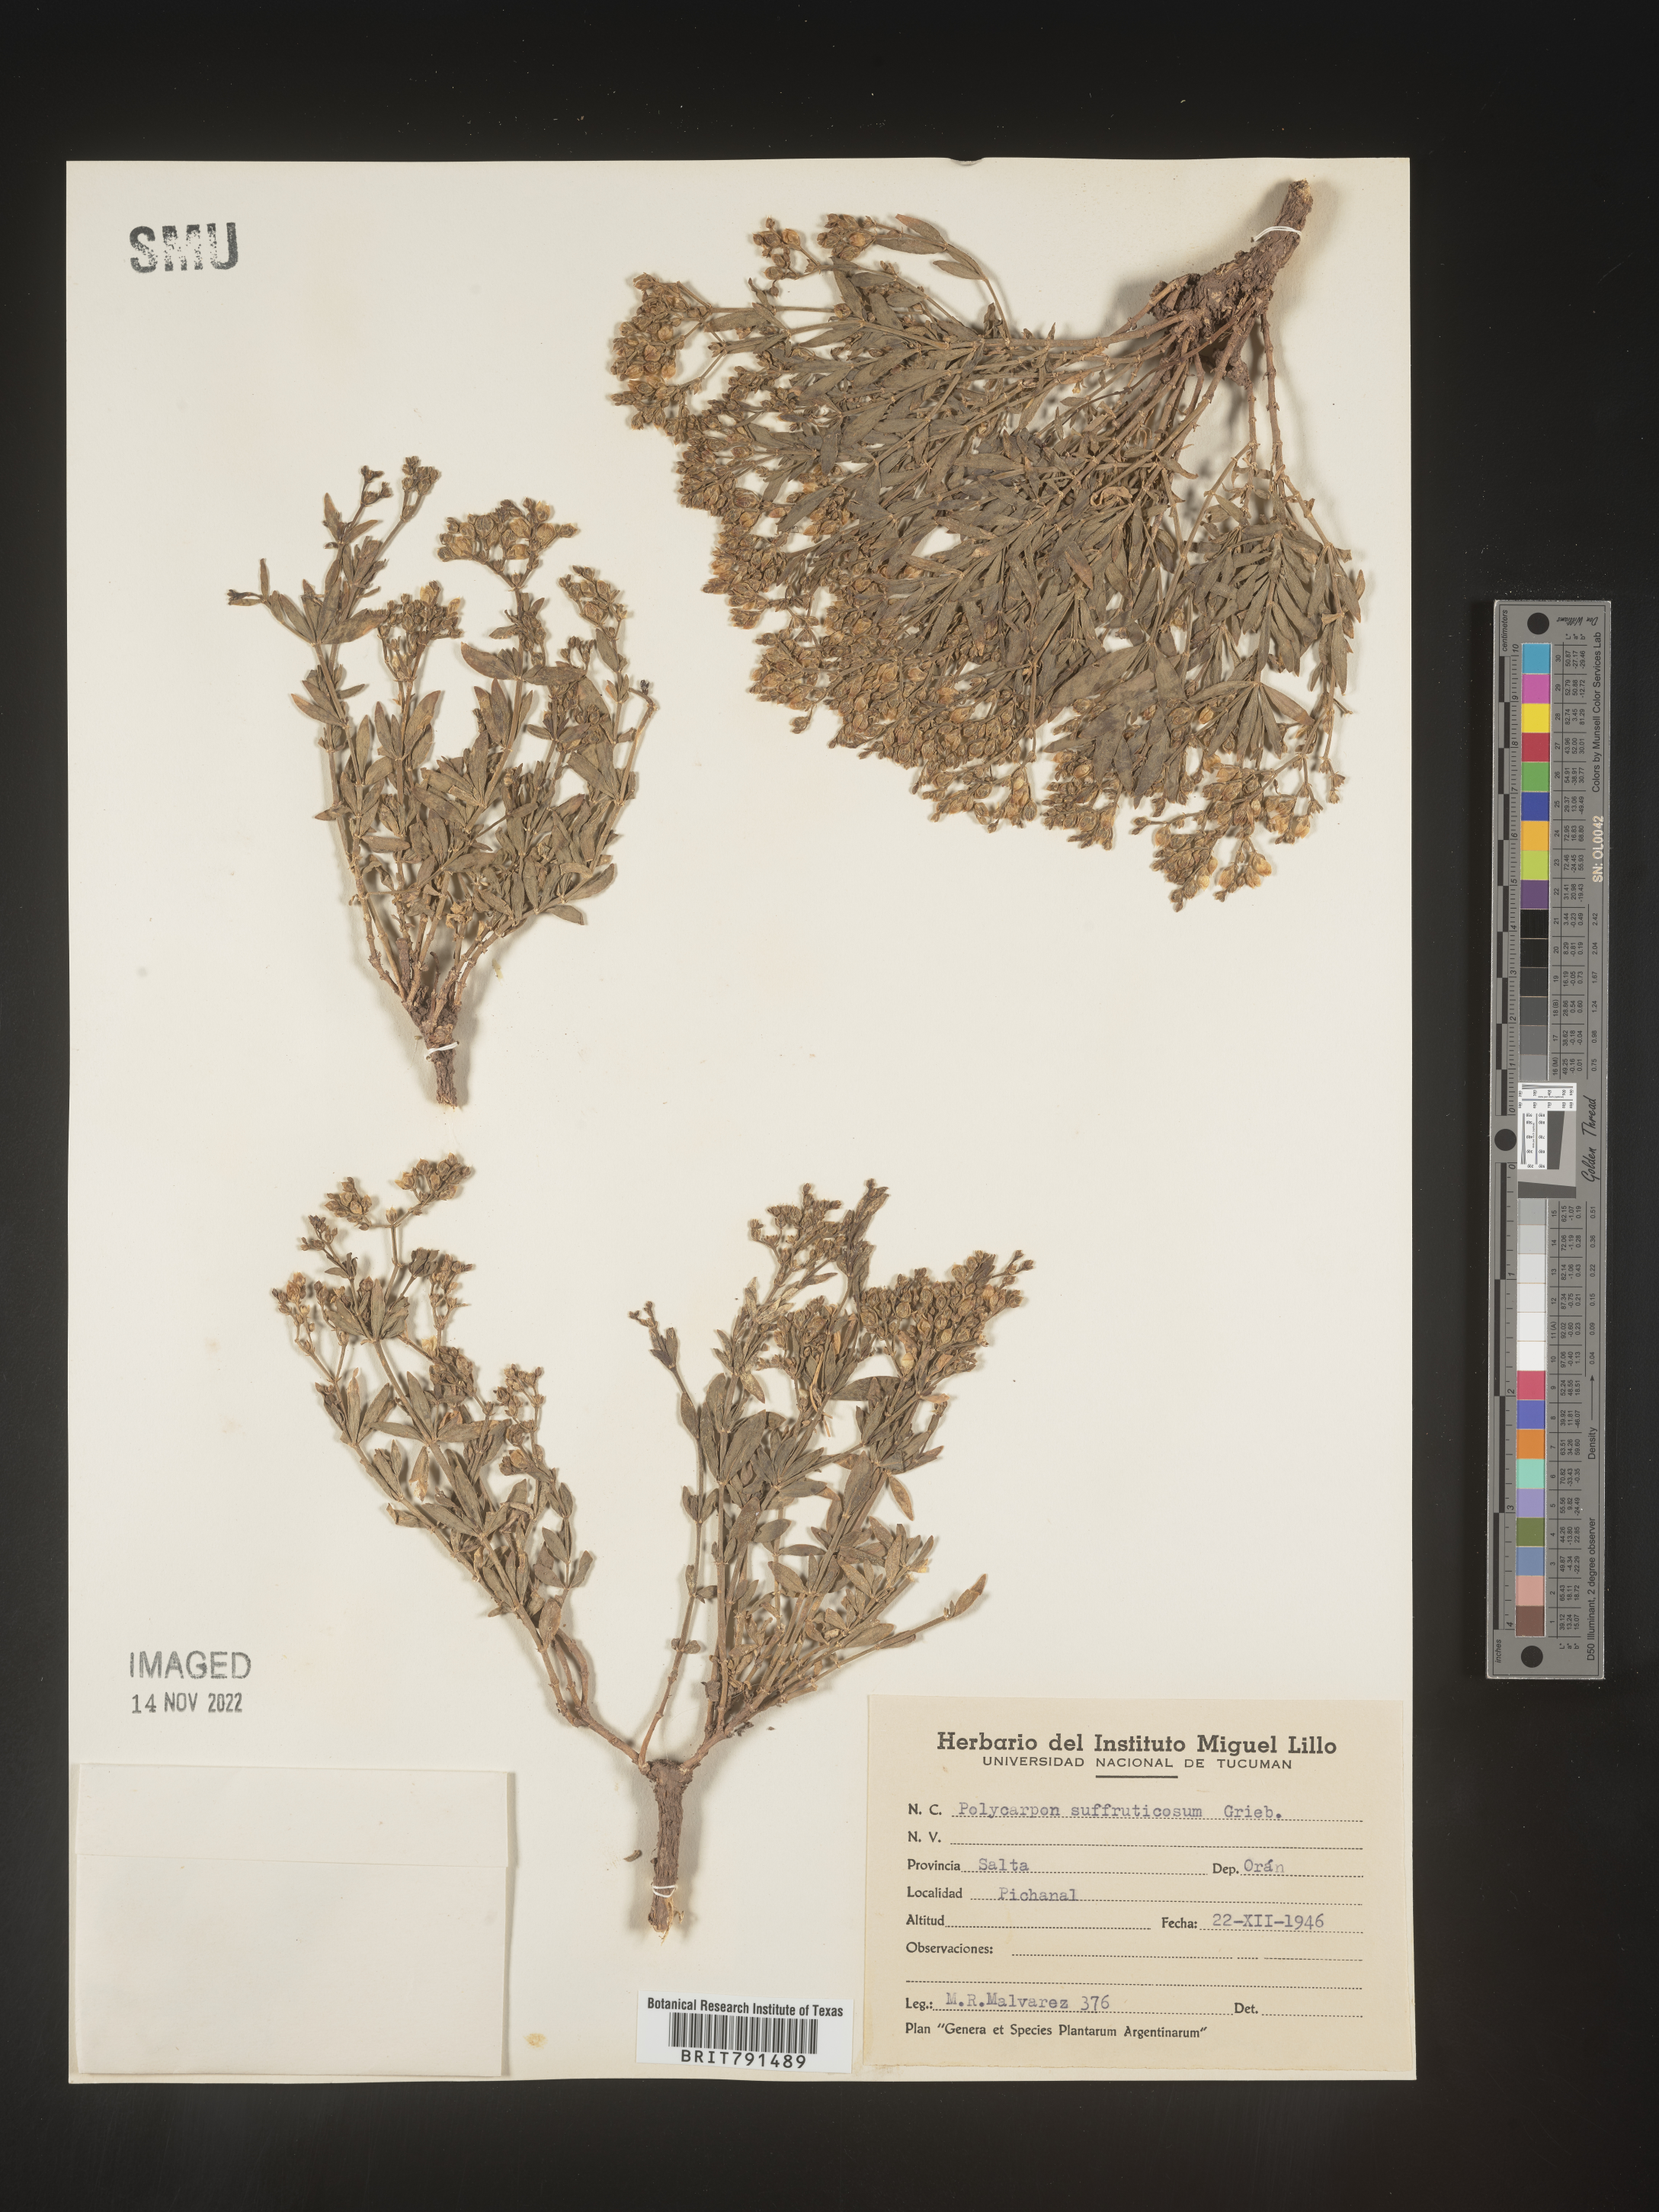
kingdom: Plantae
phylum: Tracheophyta
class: Magnoliopsida
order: Caryophyllales
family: Caryophyllaceae
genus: Polycarpon
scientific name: Polycarpon
